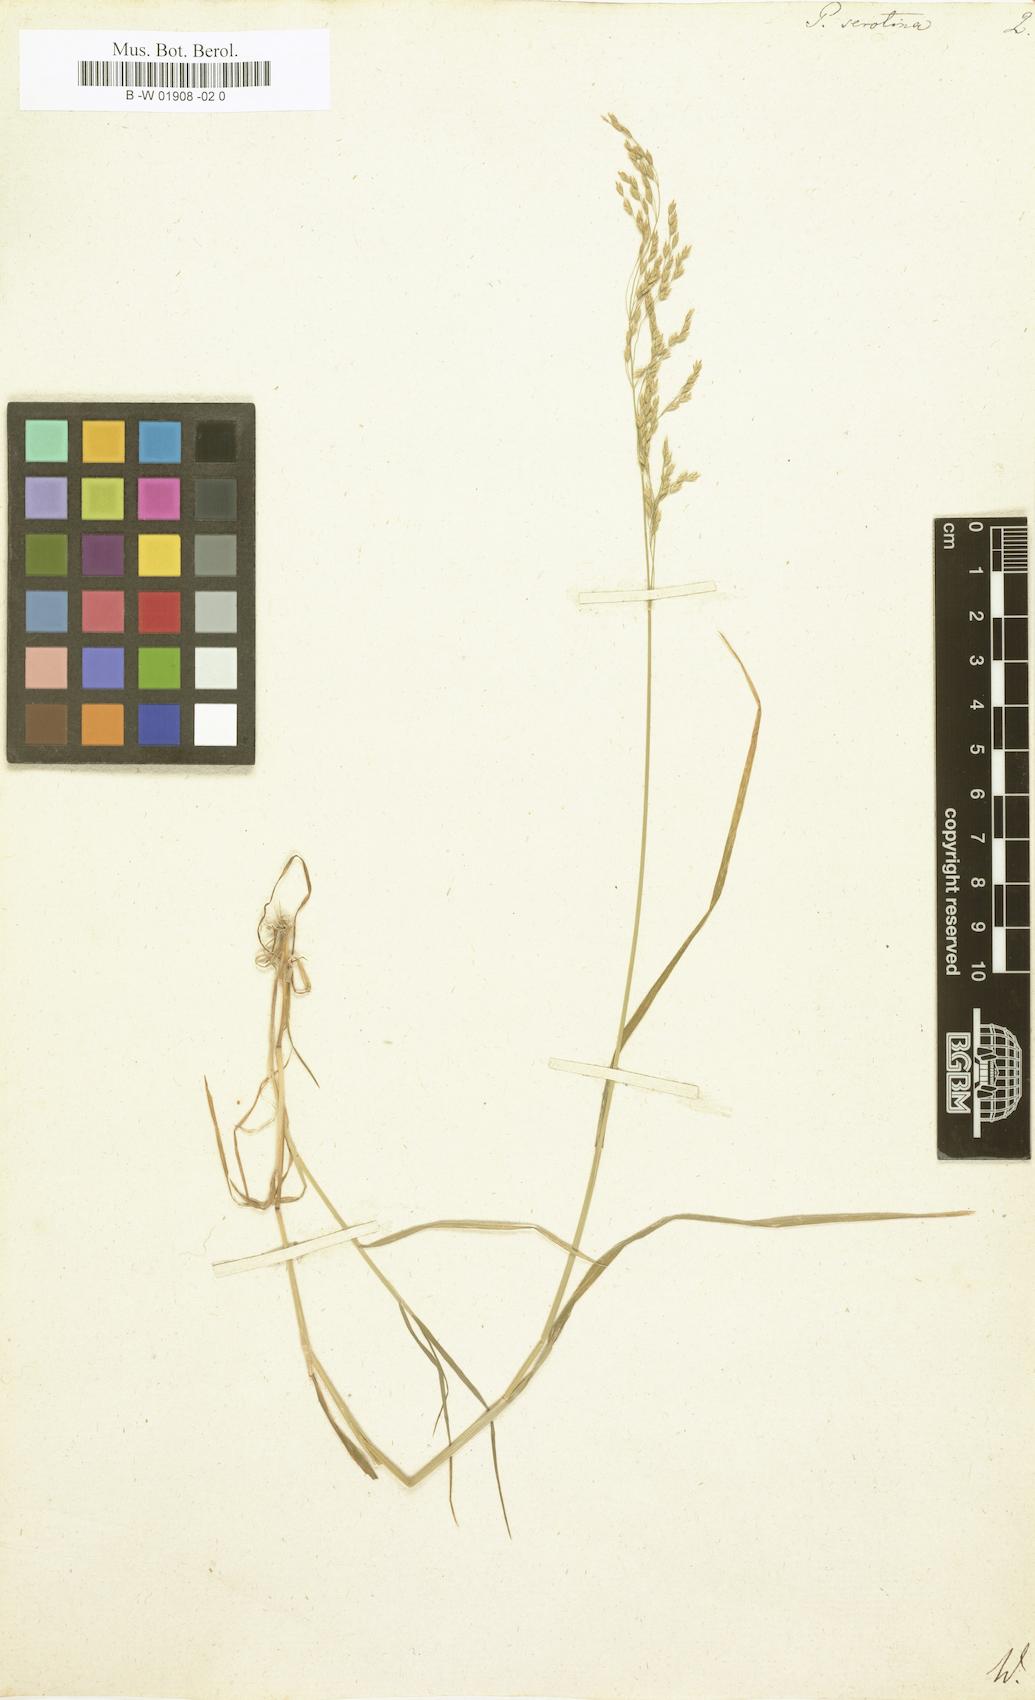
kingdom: Plantae
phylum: Tracheophyta
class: Liliopsida
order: Poales
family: Poaceae
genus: Poa
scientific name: Poa palustris
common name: Swamp meadow-grass
